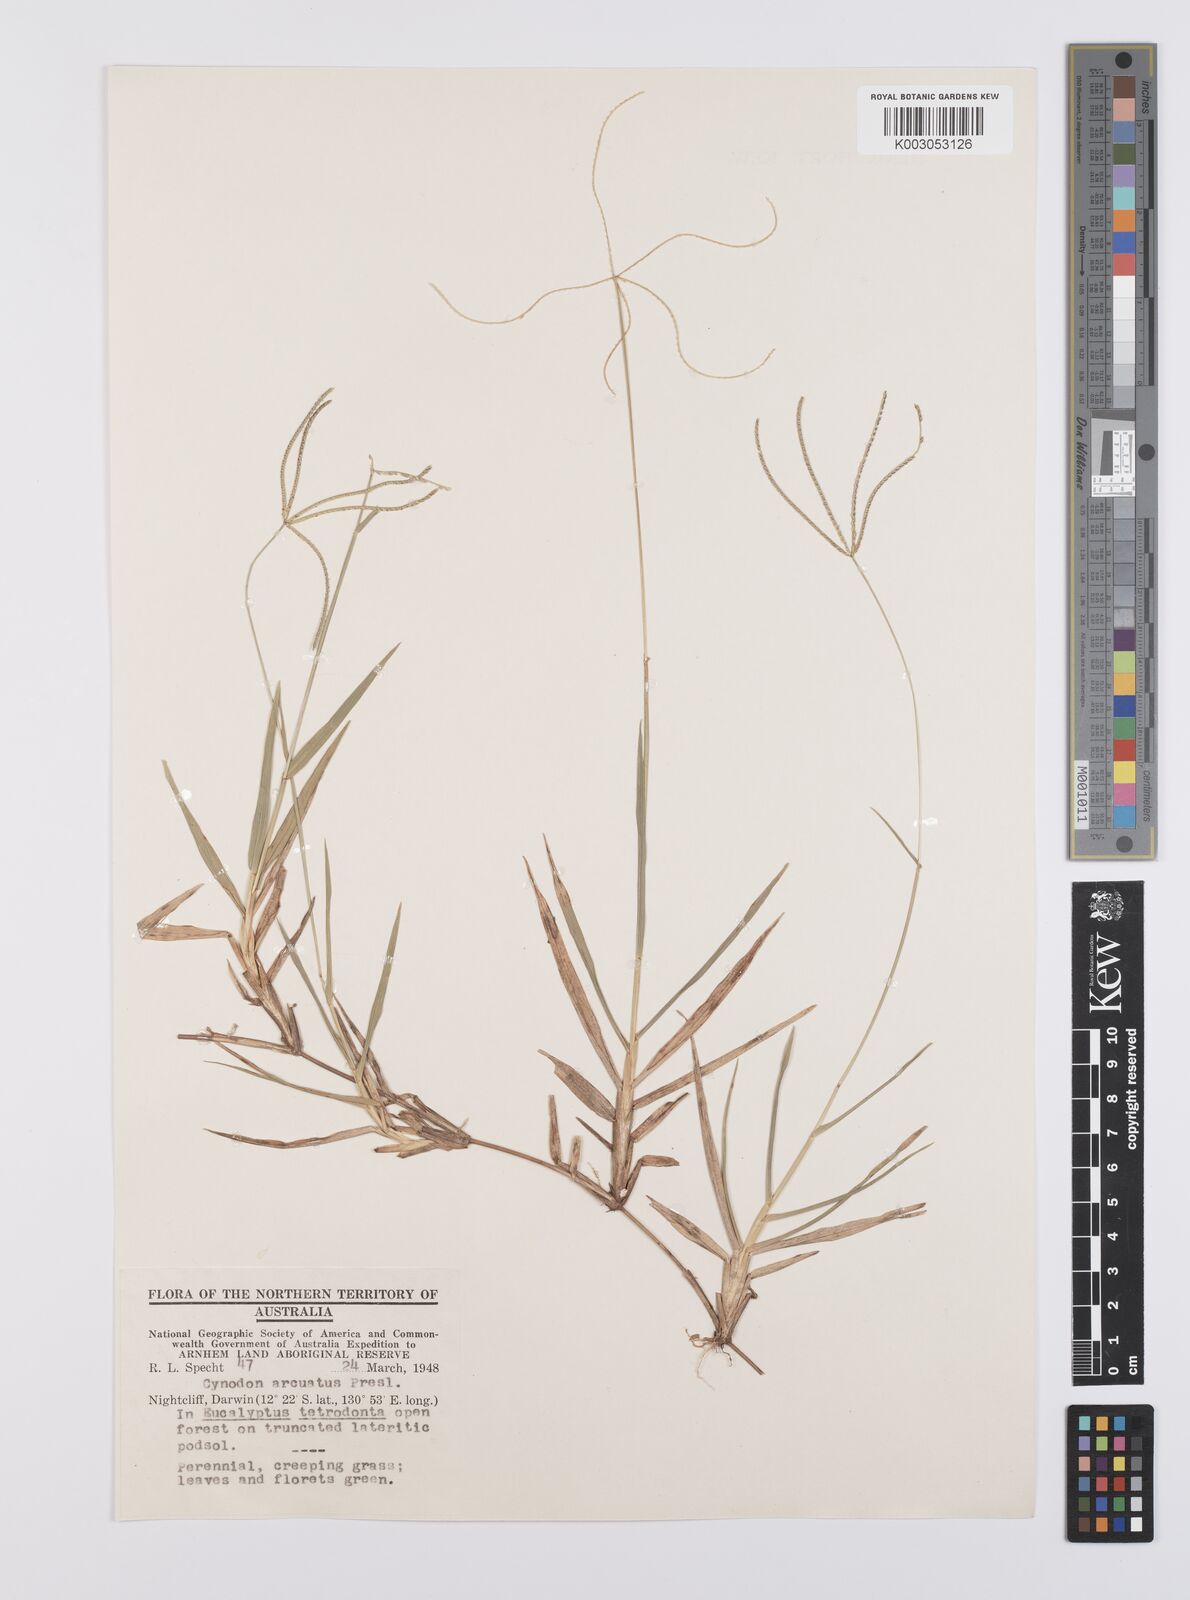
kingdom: Plantae
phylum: Tracheophyta
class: Liliopsida
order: Poales
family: Poaceae
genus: Cynodon
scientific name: Cynodon radiatus
